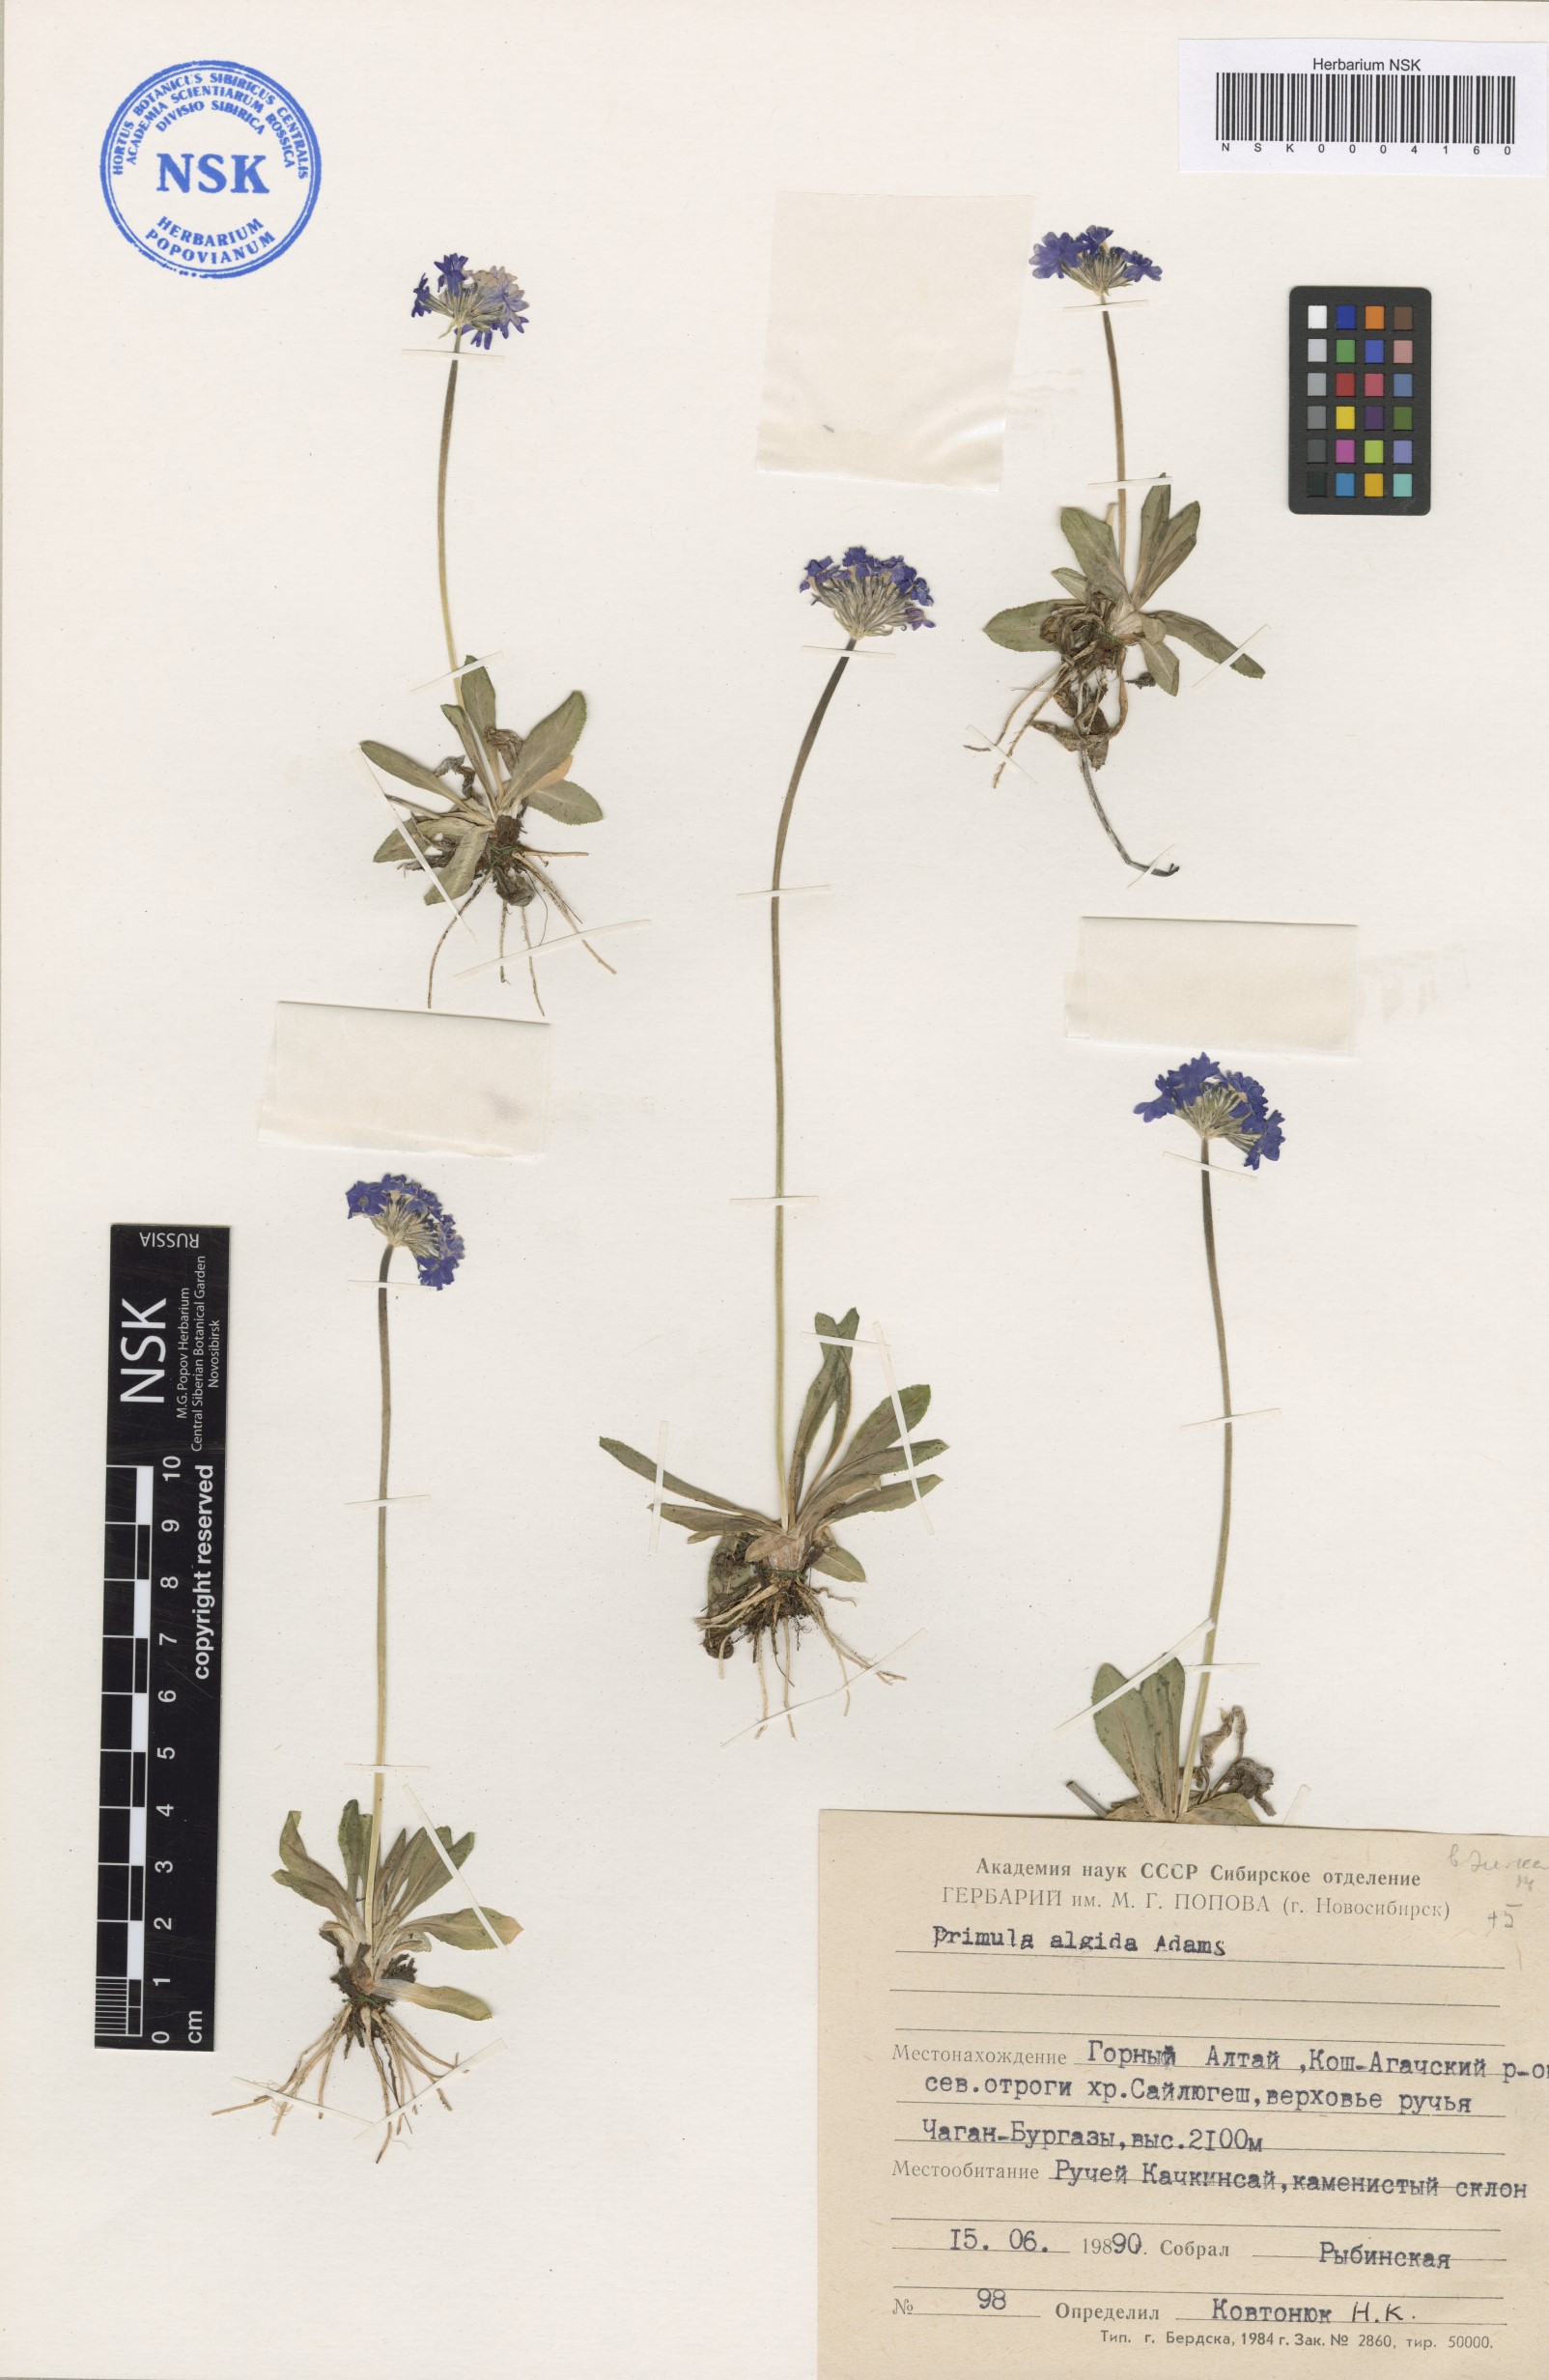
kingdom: Plantae
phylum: Tracheophyta
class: Magnoliopsida
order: Ericales
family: Primulaceae
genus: Primula
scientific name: Primula algida
